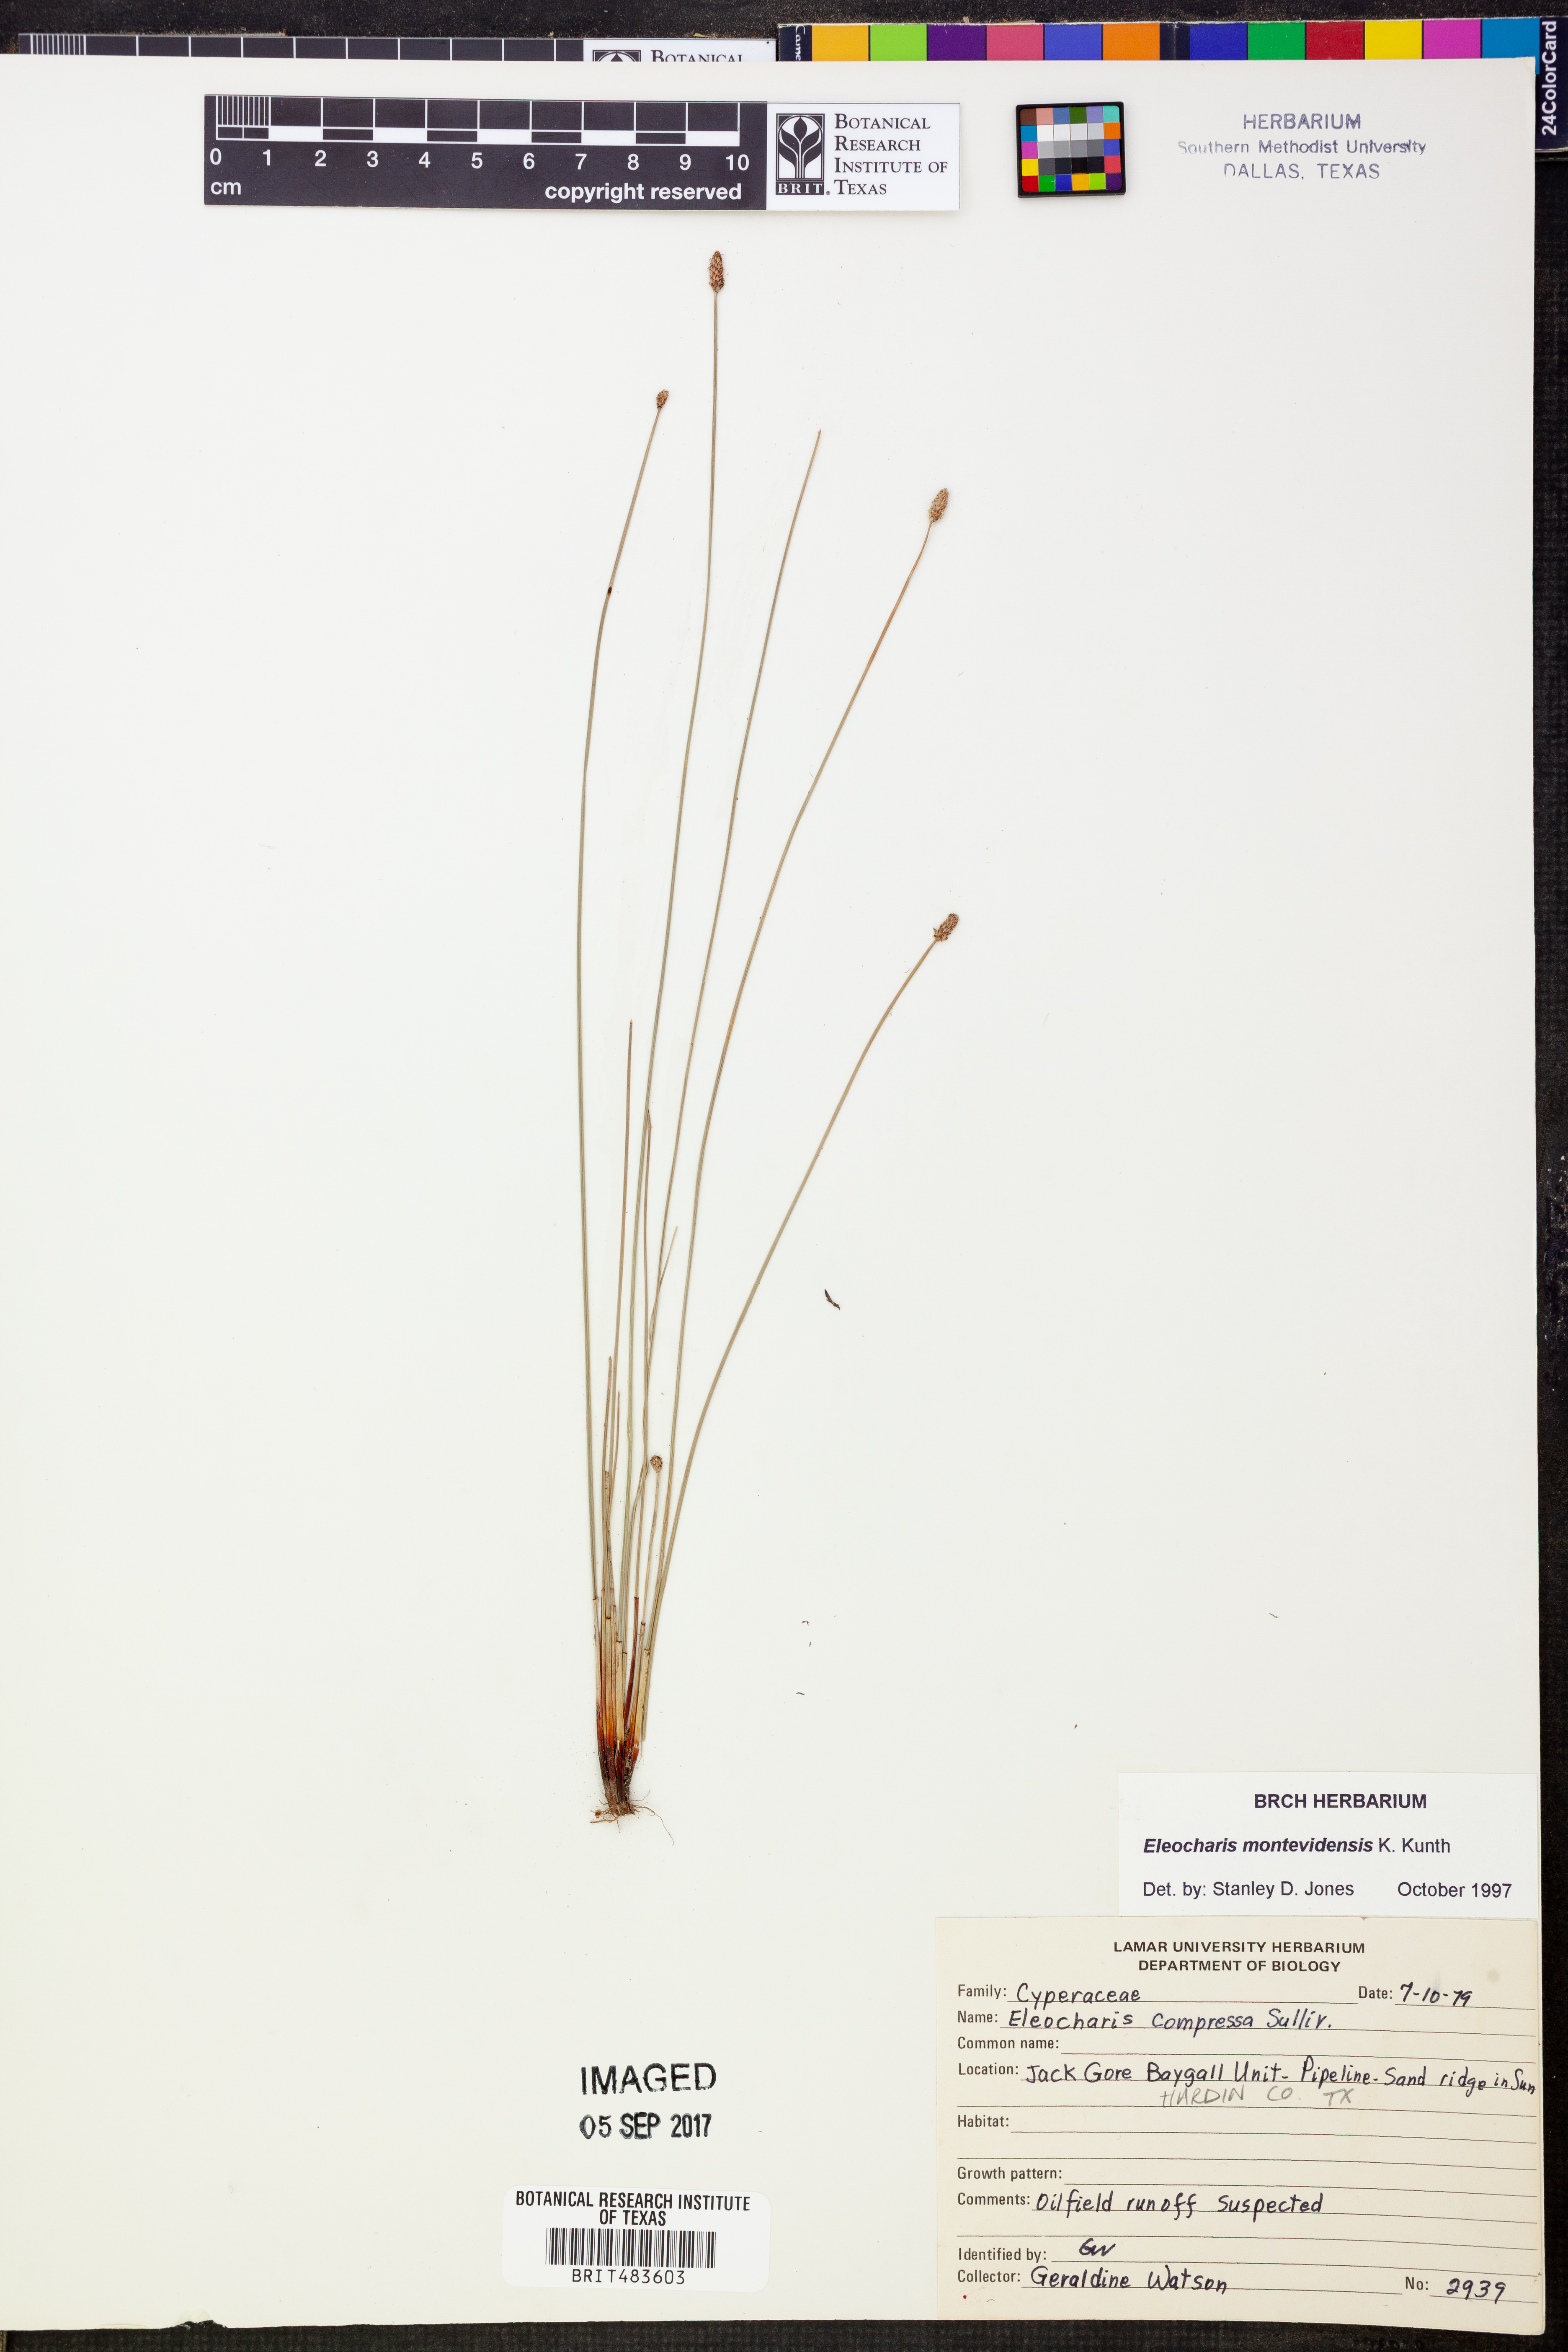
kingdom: Plantae
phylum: Tracheophyta
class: Liliopsida
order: Poales
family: Cyperaceae
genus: Eleocharis
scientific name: Eleocharis montevidensis
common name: Sand spike-rush
